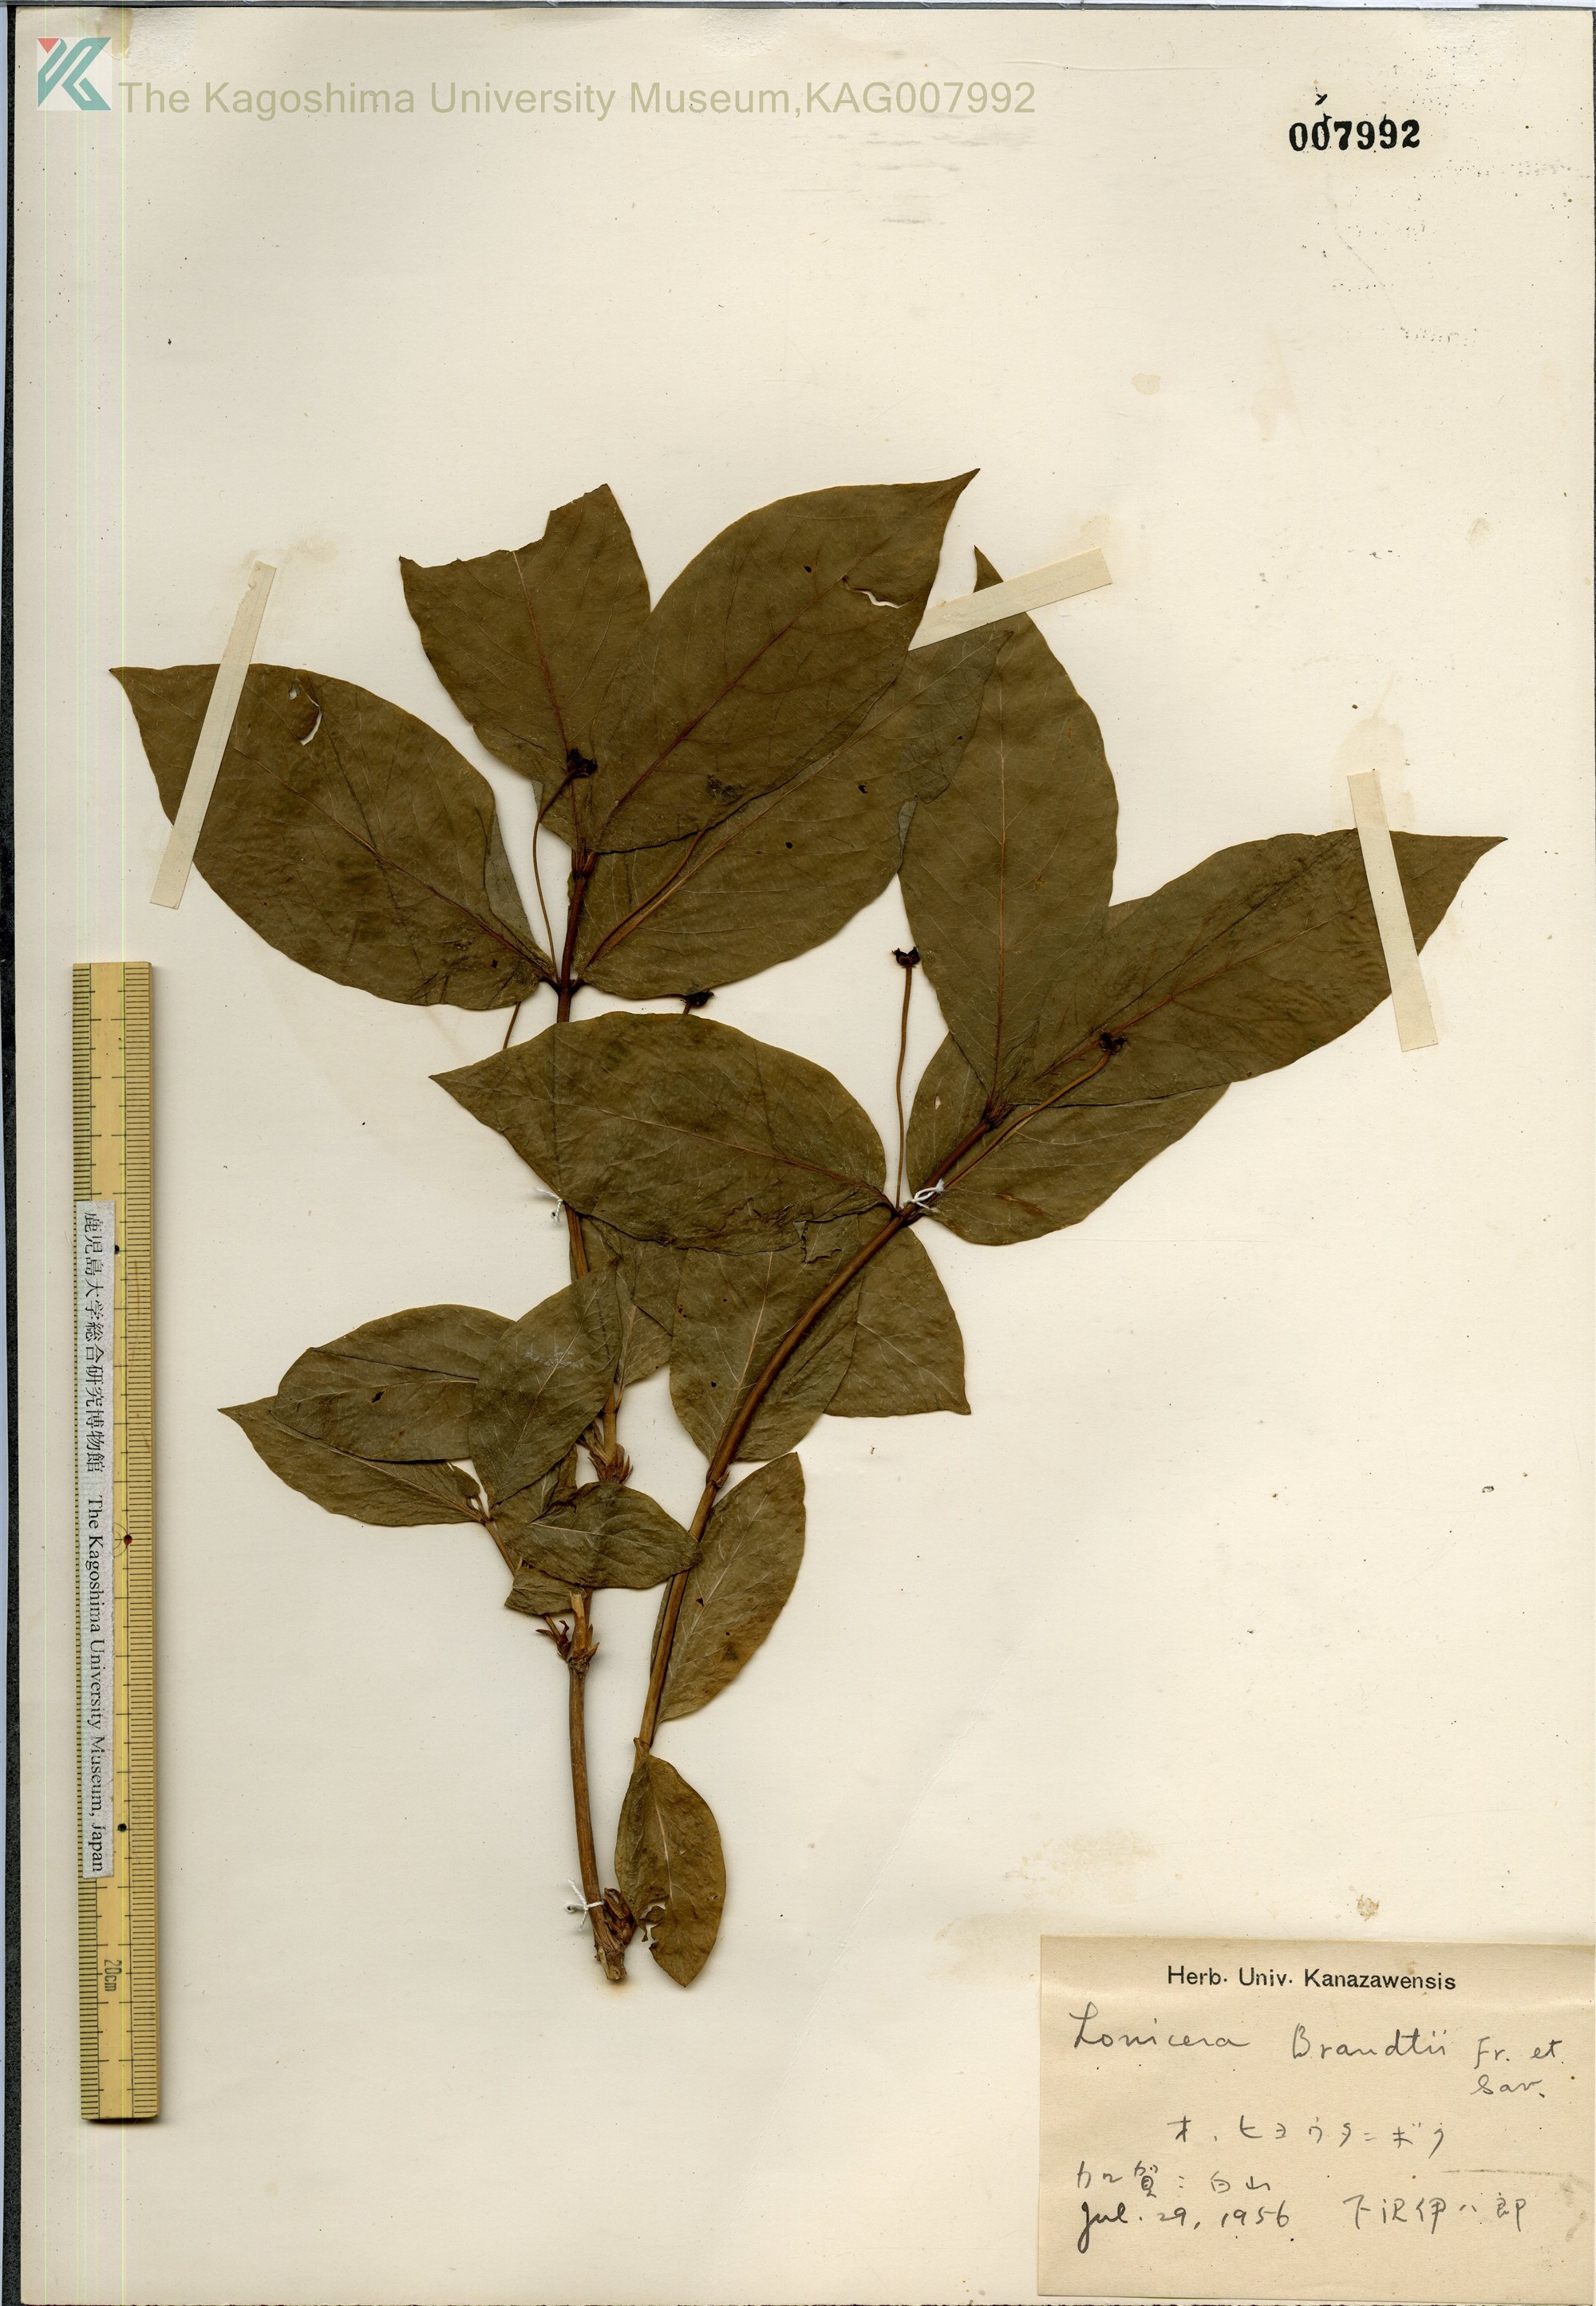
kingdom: Plantae
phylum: Tracheophyta
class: Magnoliopsida
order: Dipsacales
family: Caprifoliaceae
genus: Lonicera
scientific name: Lonicera tschonoskii
